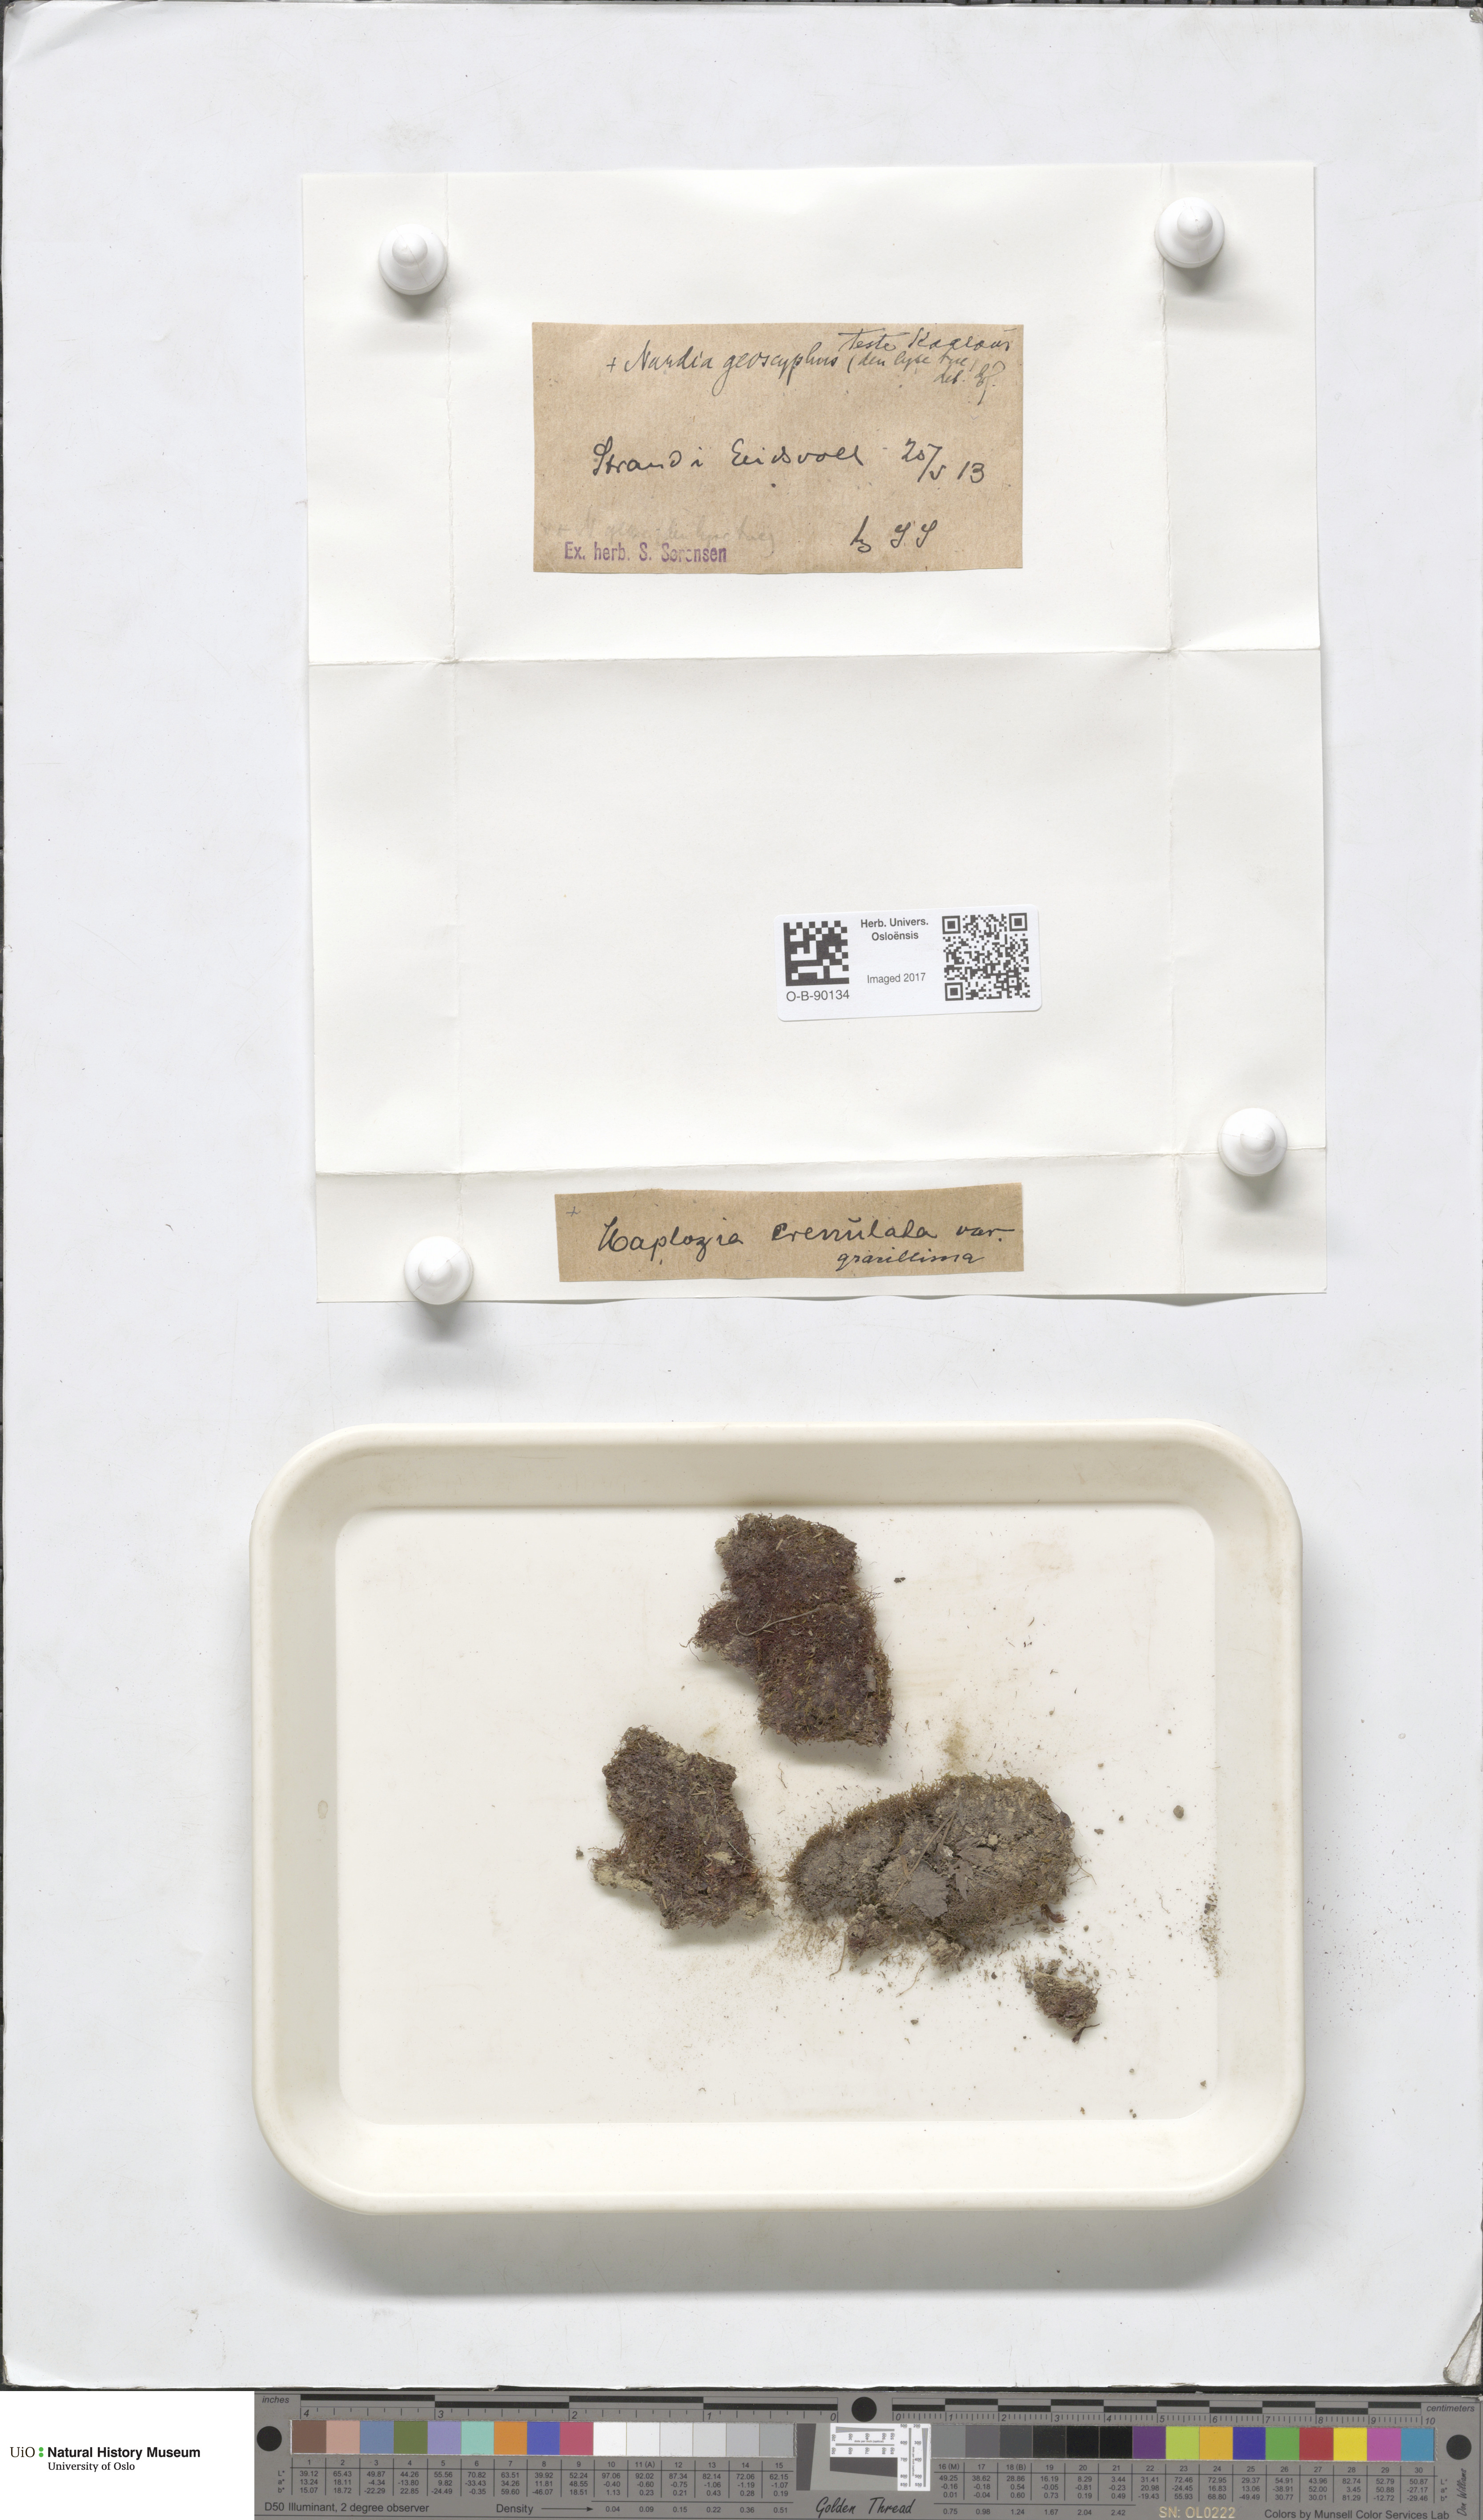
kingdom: Plantae
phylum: Marchantiophyta
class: Jungermanniopsida
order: Jungermanniales
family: Solenostomataceae
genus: Solenostoma
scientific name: Solenostoma gracillimum
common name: Crenulated flapwort
